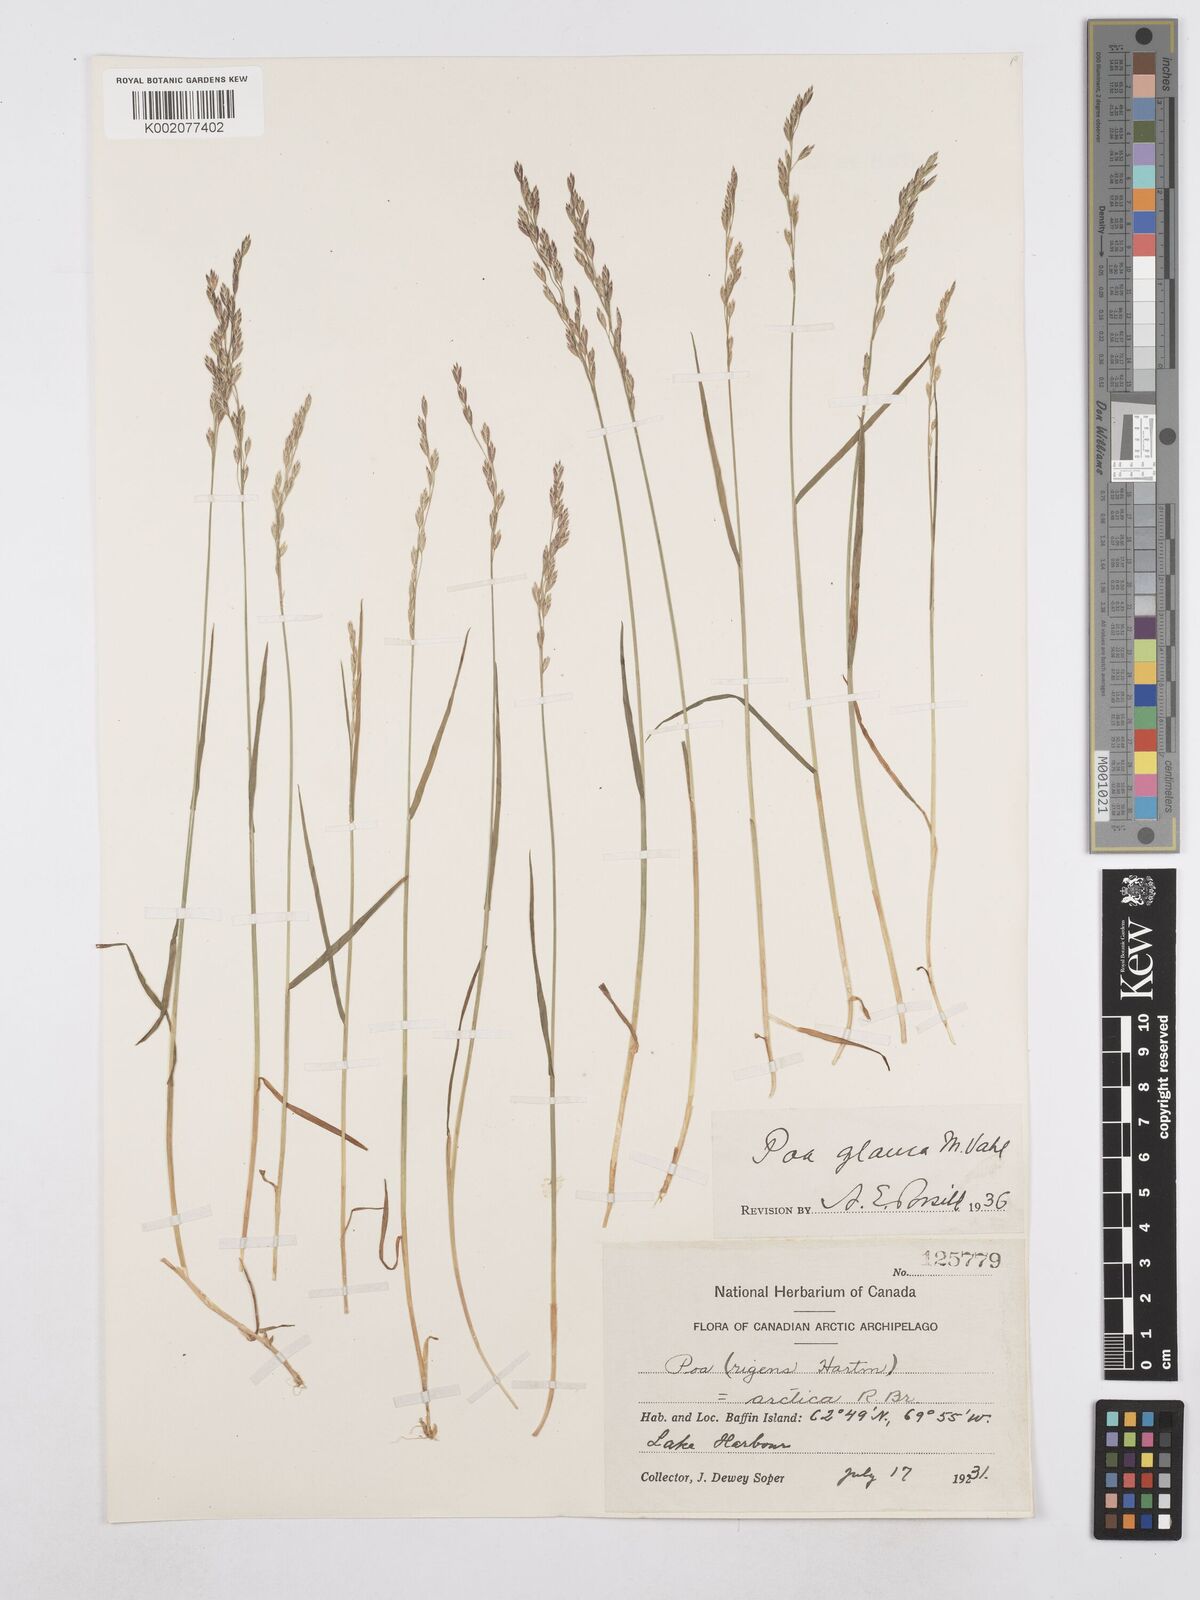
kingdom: Plantae
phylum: Tracheophyta
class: Liliopsida
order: Poales
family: Poaceae
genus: Poa
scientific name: Poa glauca
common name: Glaucous bluegrass
